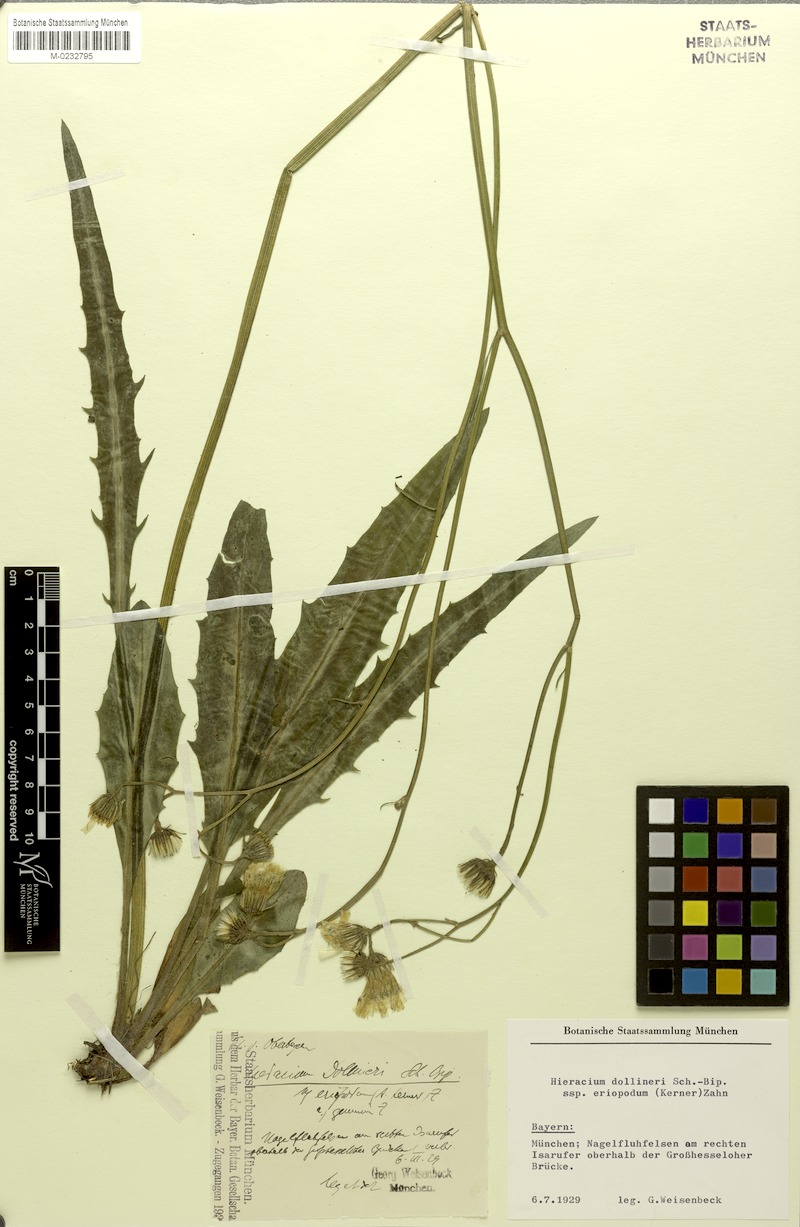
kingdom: Plantae
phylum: Tracheophyta
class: Magnoliopsida
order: Asterales
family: Asteraceae
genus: Hieracium
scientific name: Hieracium dollineri
